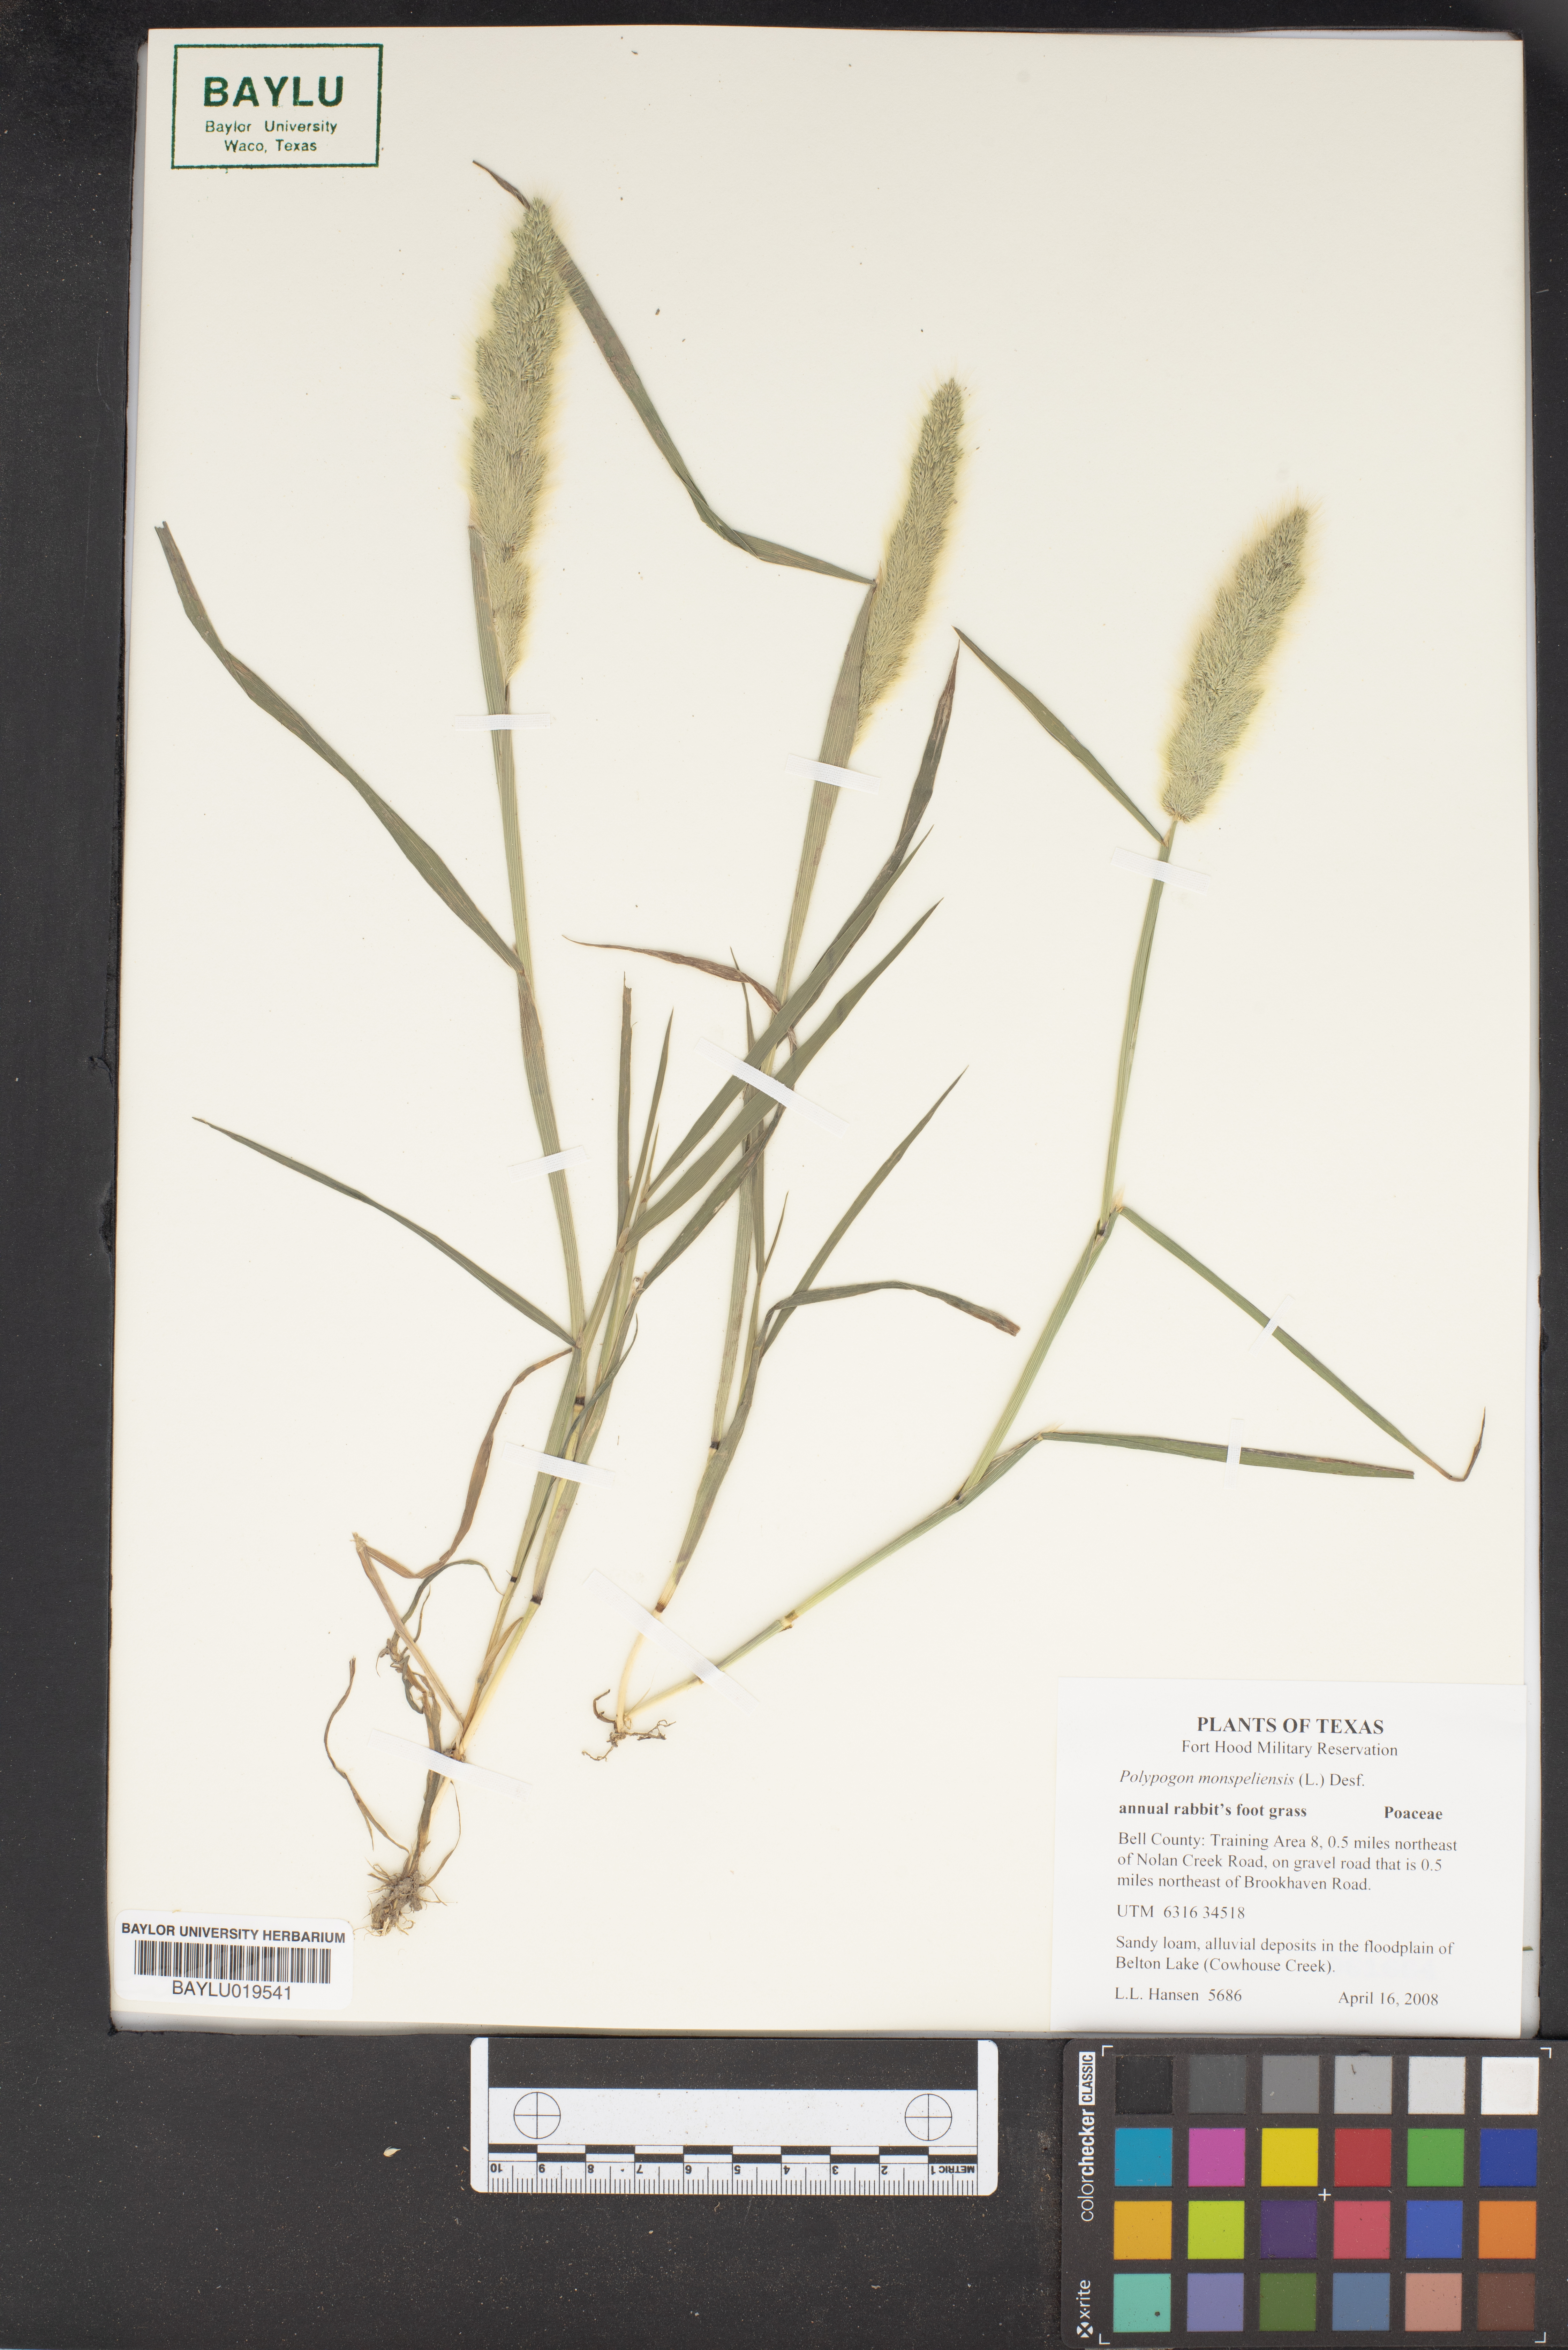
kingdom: Plantae
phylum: Tracheophyta
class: Liliopsida
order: Poales
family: Poaceae
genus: Polypogon
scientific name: Polypogon monspeliensis
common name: Annual rabbitsfoot grass
